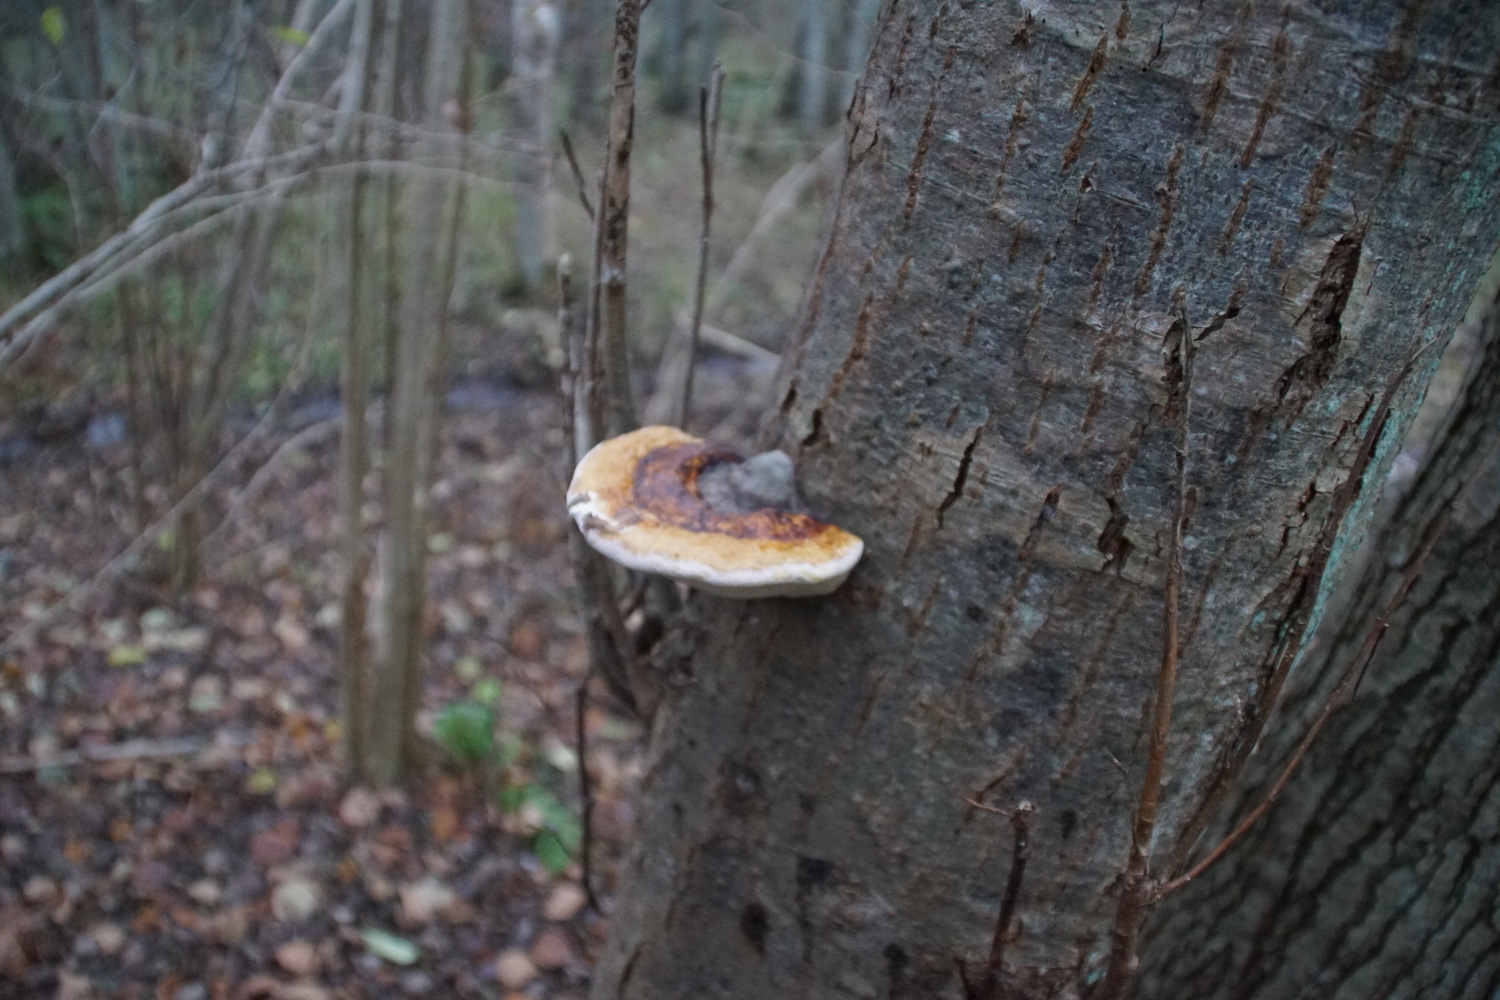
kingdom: Fungi
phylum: Basidiomycota
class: Agaricomycetes
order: Polyporales
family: Fomitopsidaceae
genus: Fomitopsis
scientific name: Fomitopsis pinicola
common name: randbæltet hovporesvamp
